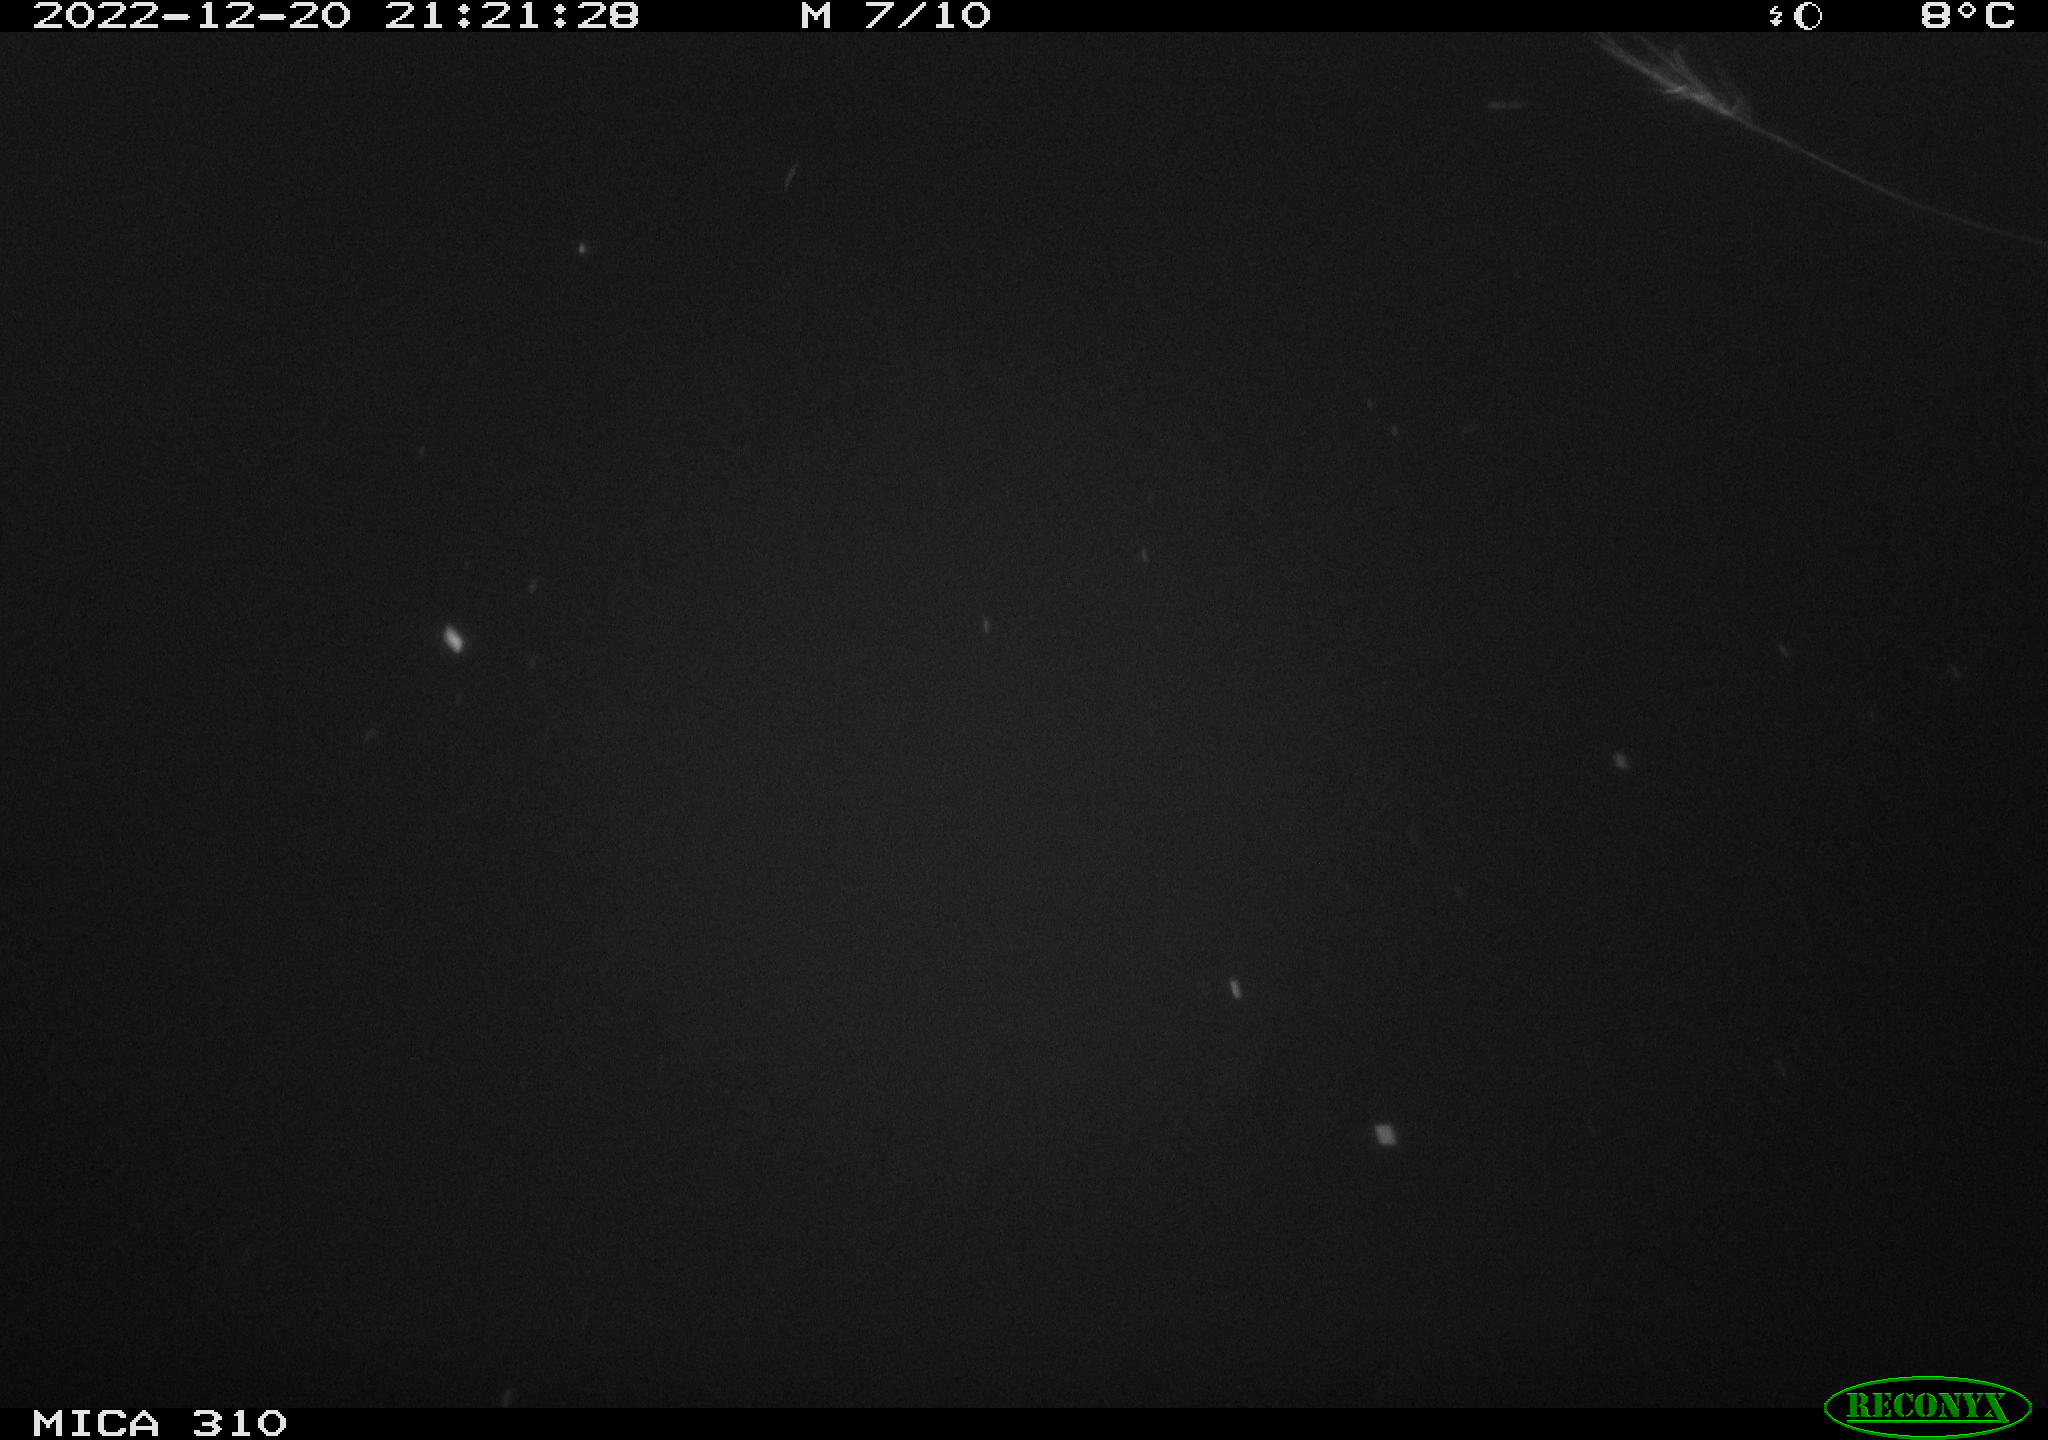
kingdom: Animalia
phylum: Chordata
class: Aves
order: Anseriformes
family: Anatidae
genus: Anas
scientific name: Anas
